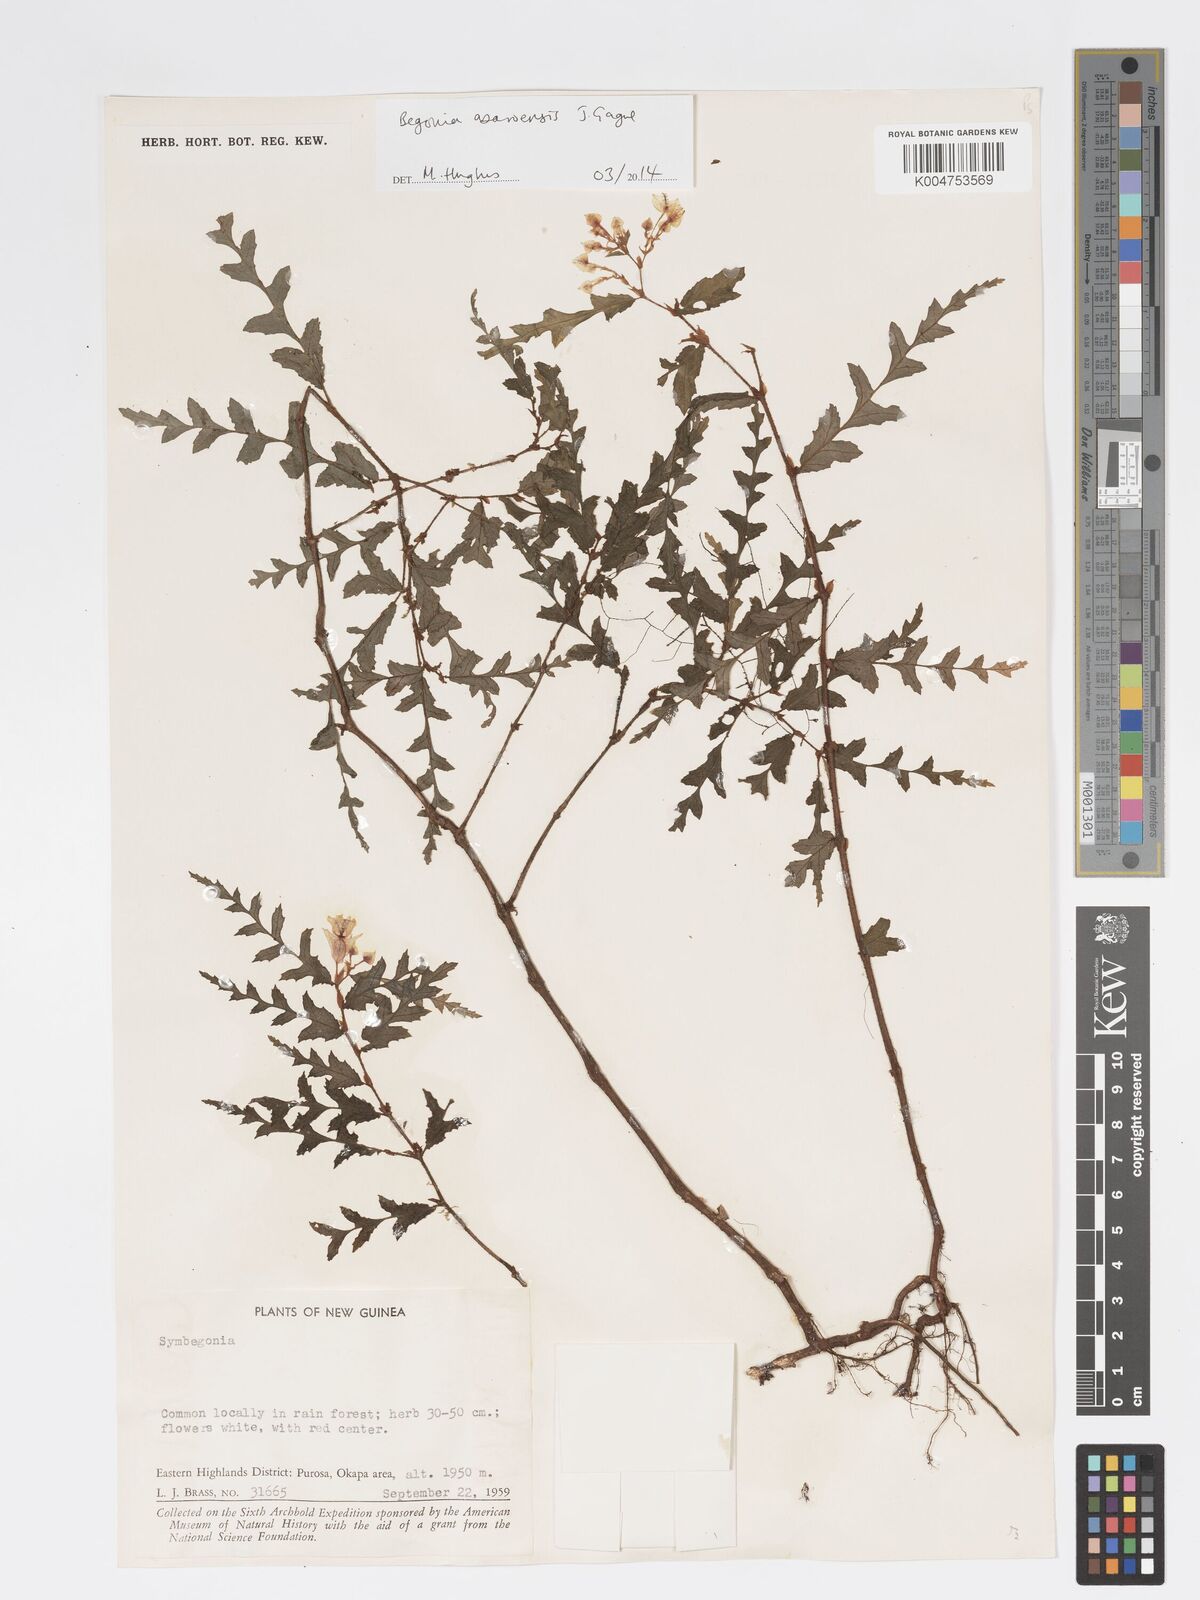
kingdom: Plantae
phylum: Tracheophyta
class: Magnoliopsida
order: Cucurbitales
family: Begoniaceae
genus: Begonia
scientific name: Begonia asaroensis
